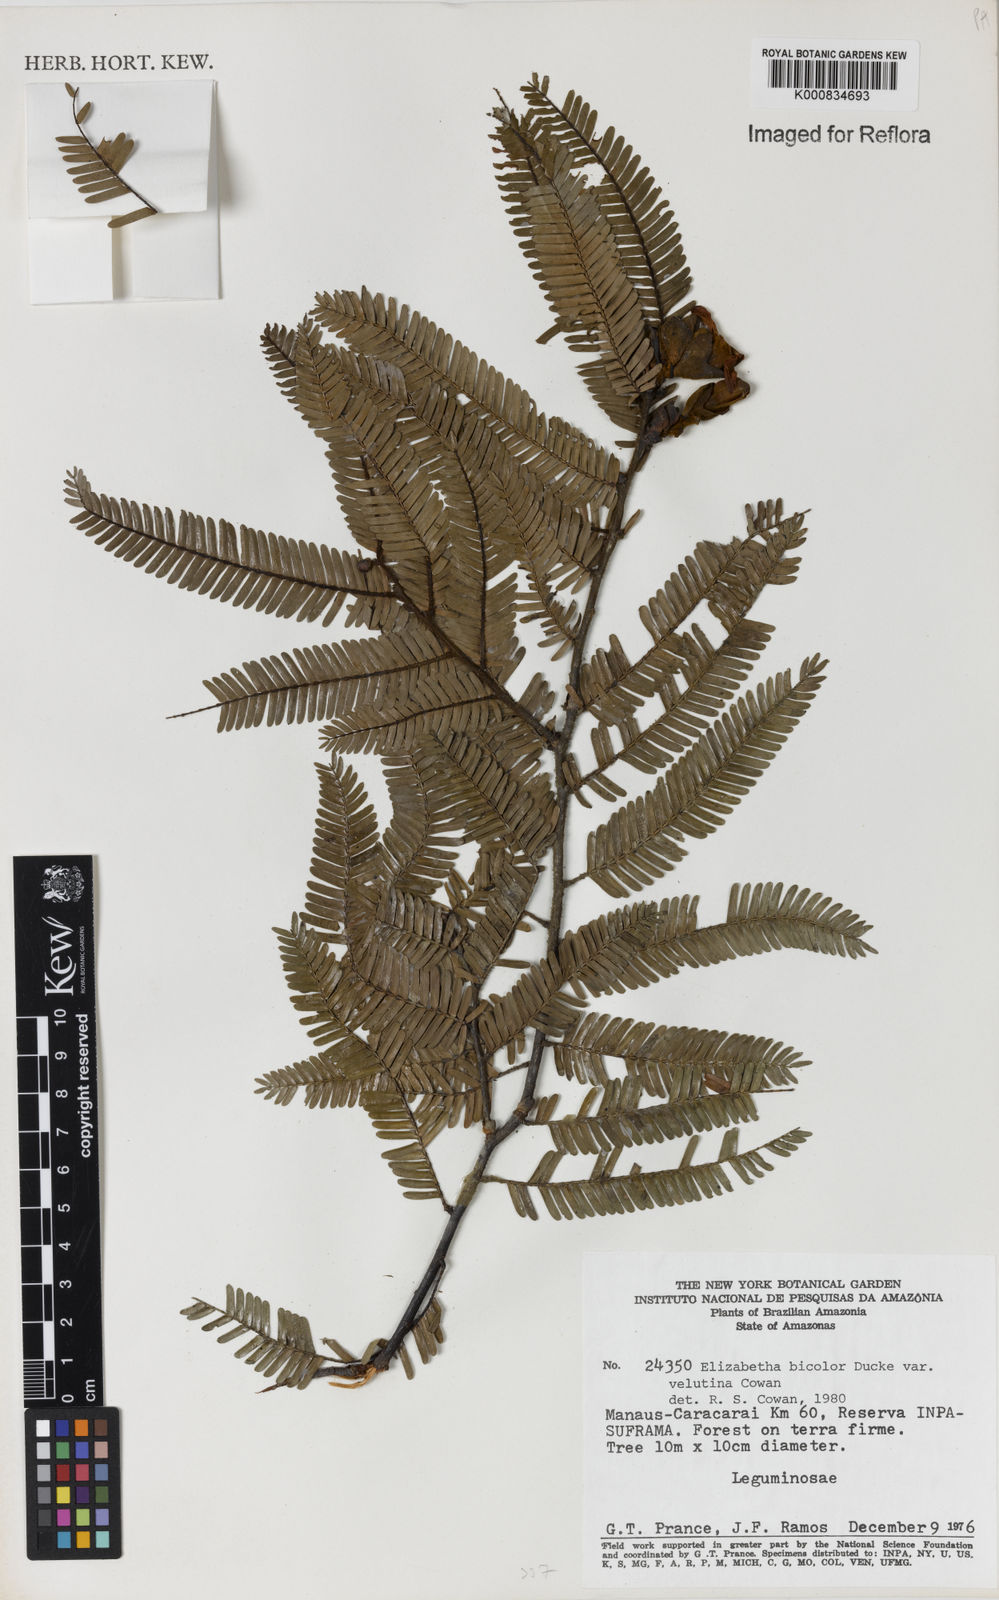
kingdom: Plantae
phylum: Tracheophyta
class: Magnoliopsida
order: Fabales
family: Fabaceae
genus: Paloue
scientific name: Paloue bicolor
